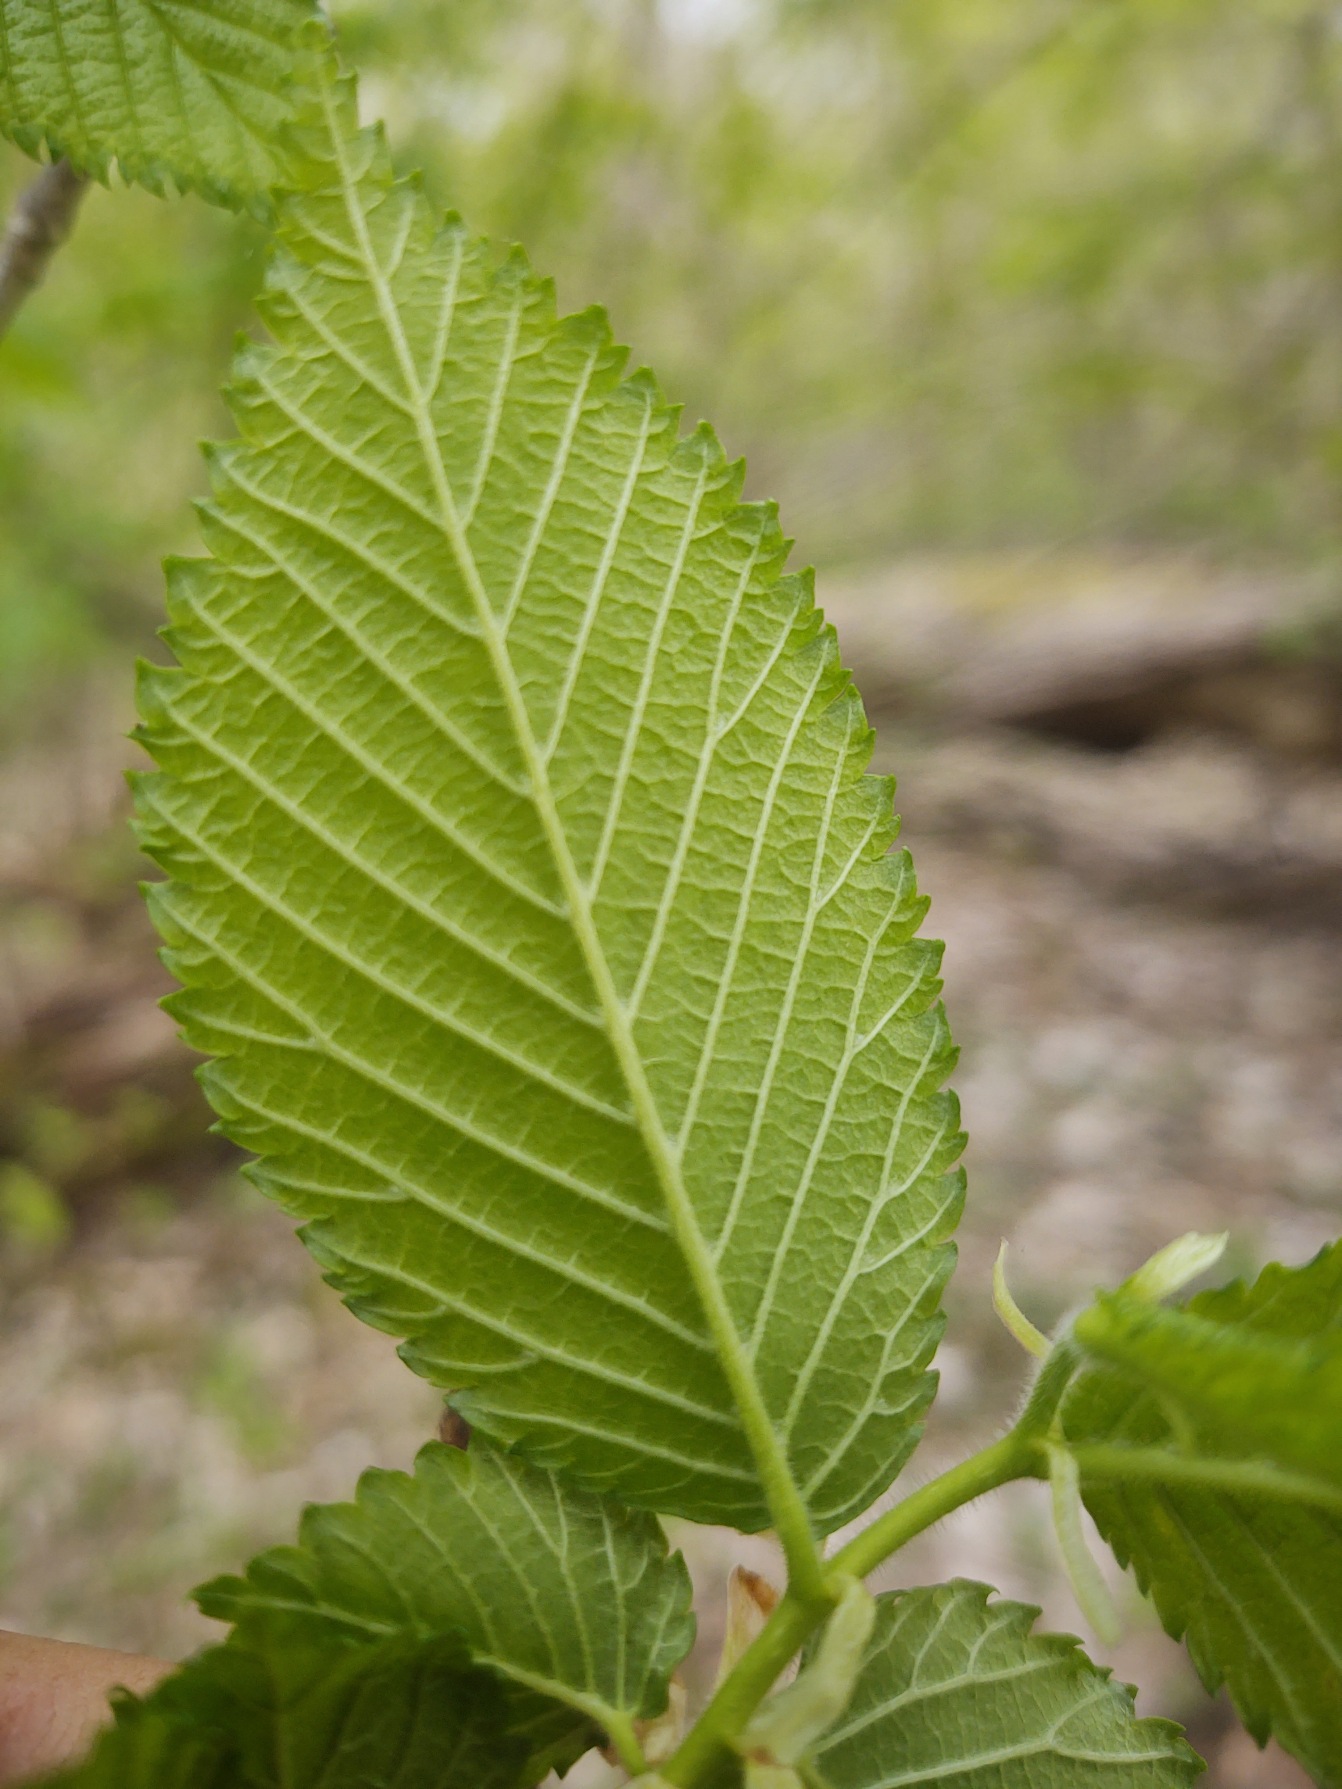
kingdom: Plantae
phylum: Tracheophyta
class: Magnoliopsida
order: Rosales
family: Ulmaceae
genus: Ulmus
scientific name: Ulmus glabra
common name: Skov-elm/storbladet elm
